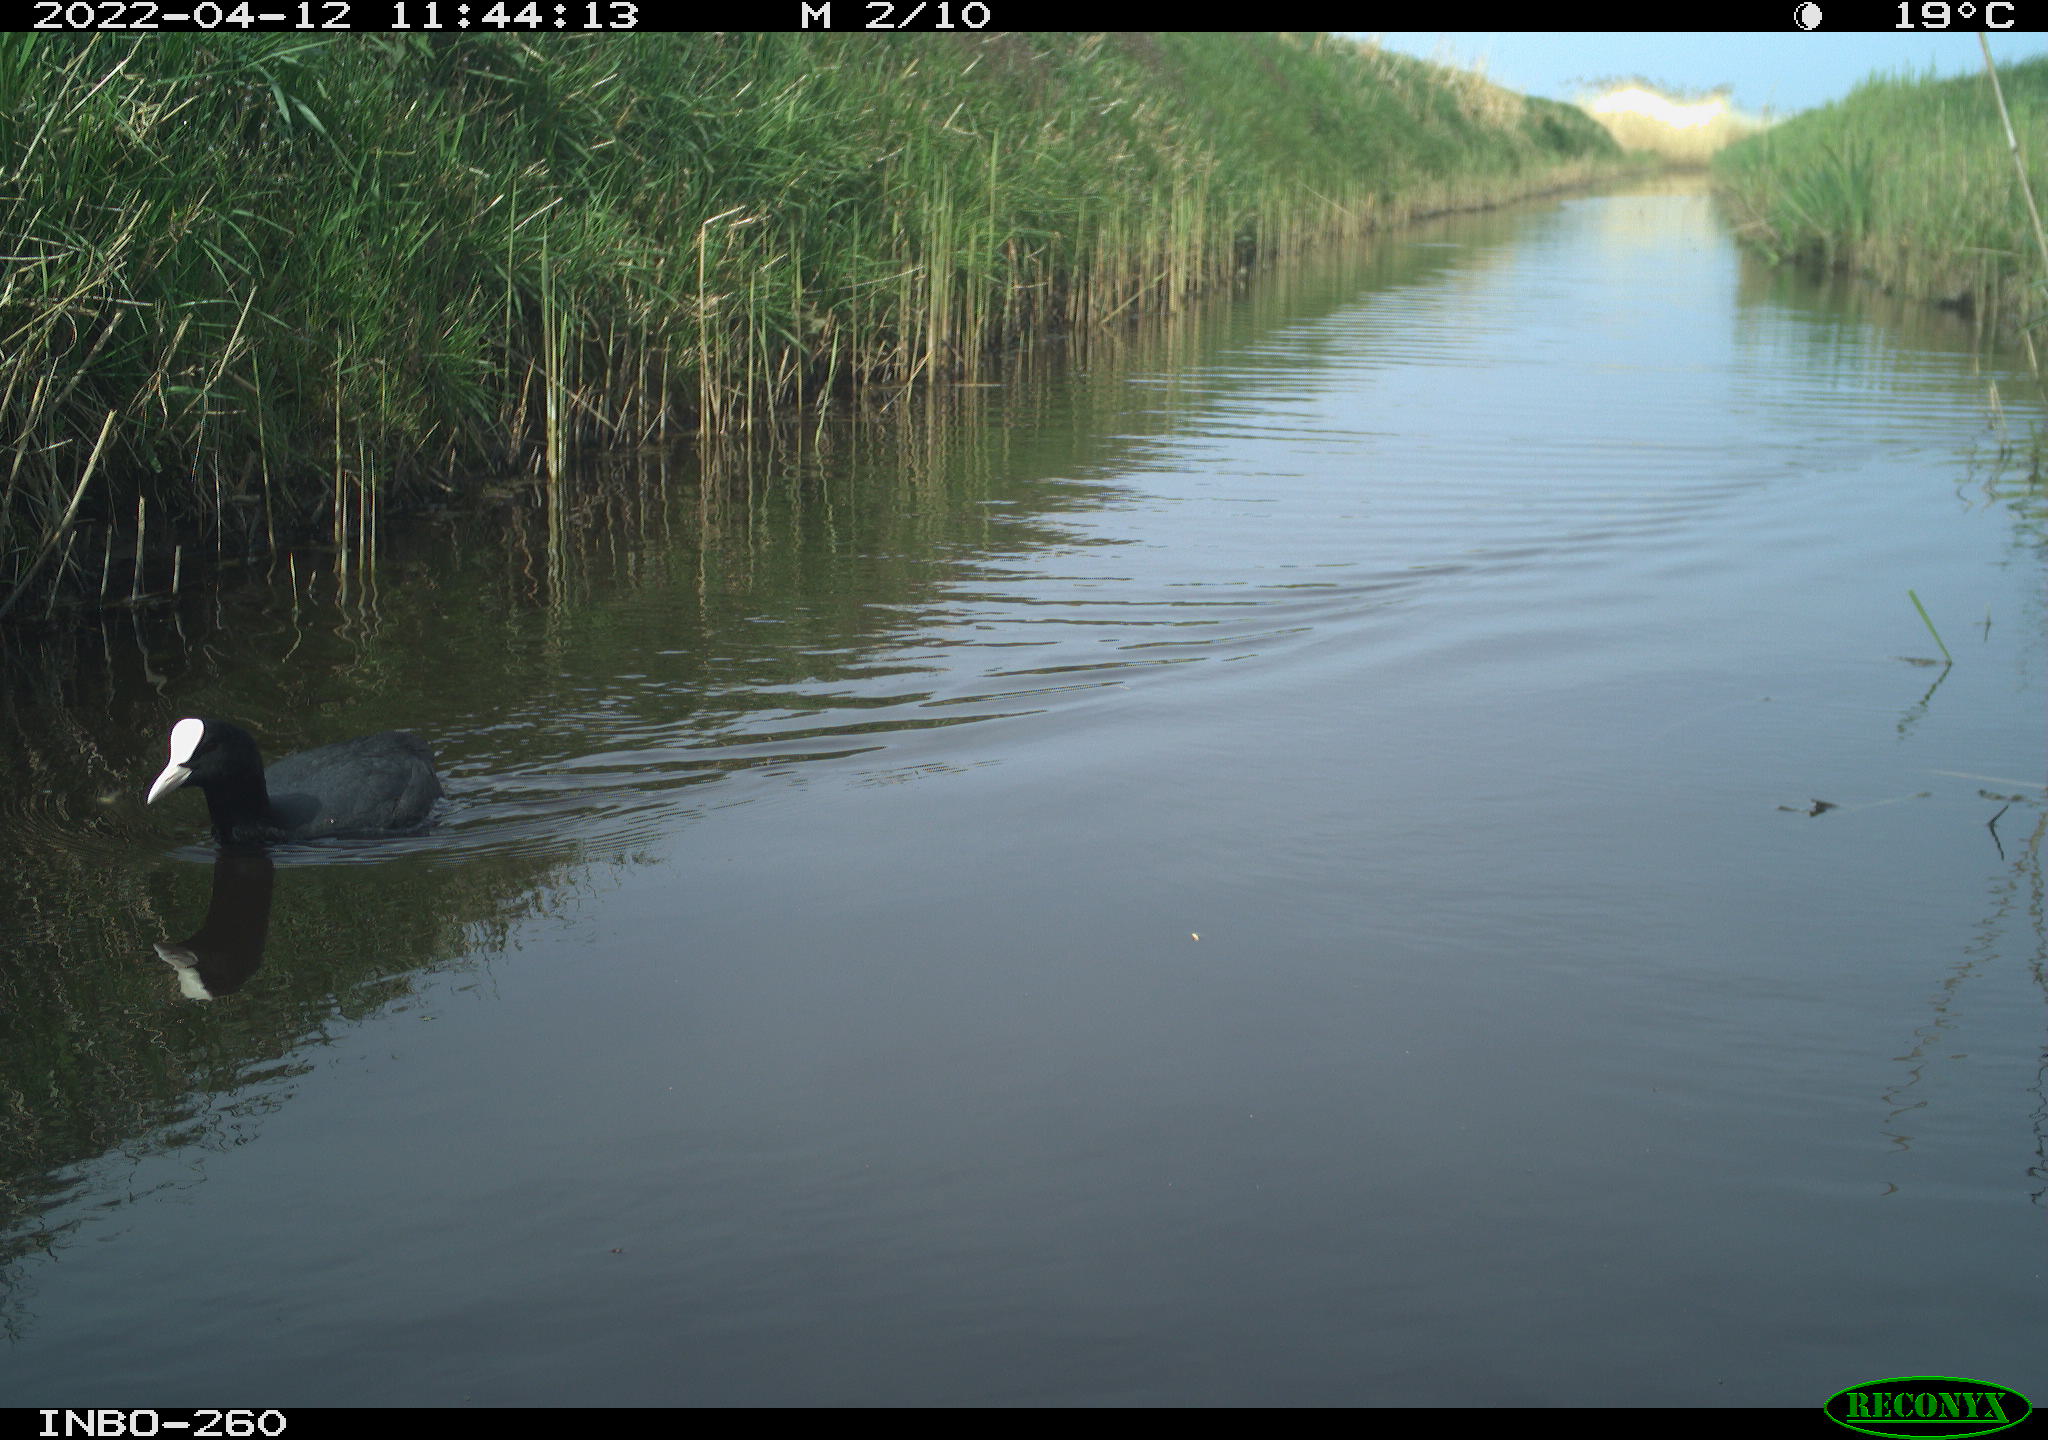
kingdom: Animalia
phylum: Chordata
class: Aves
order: Gruiformes
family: Rallidae
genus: Fulica
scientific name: Fulica atra
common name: Eurasian coot
